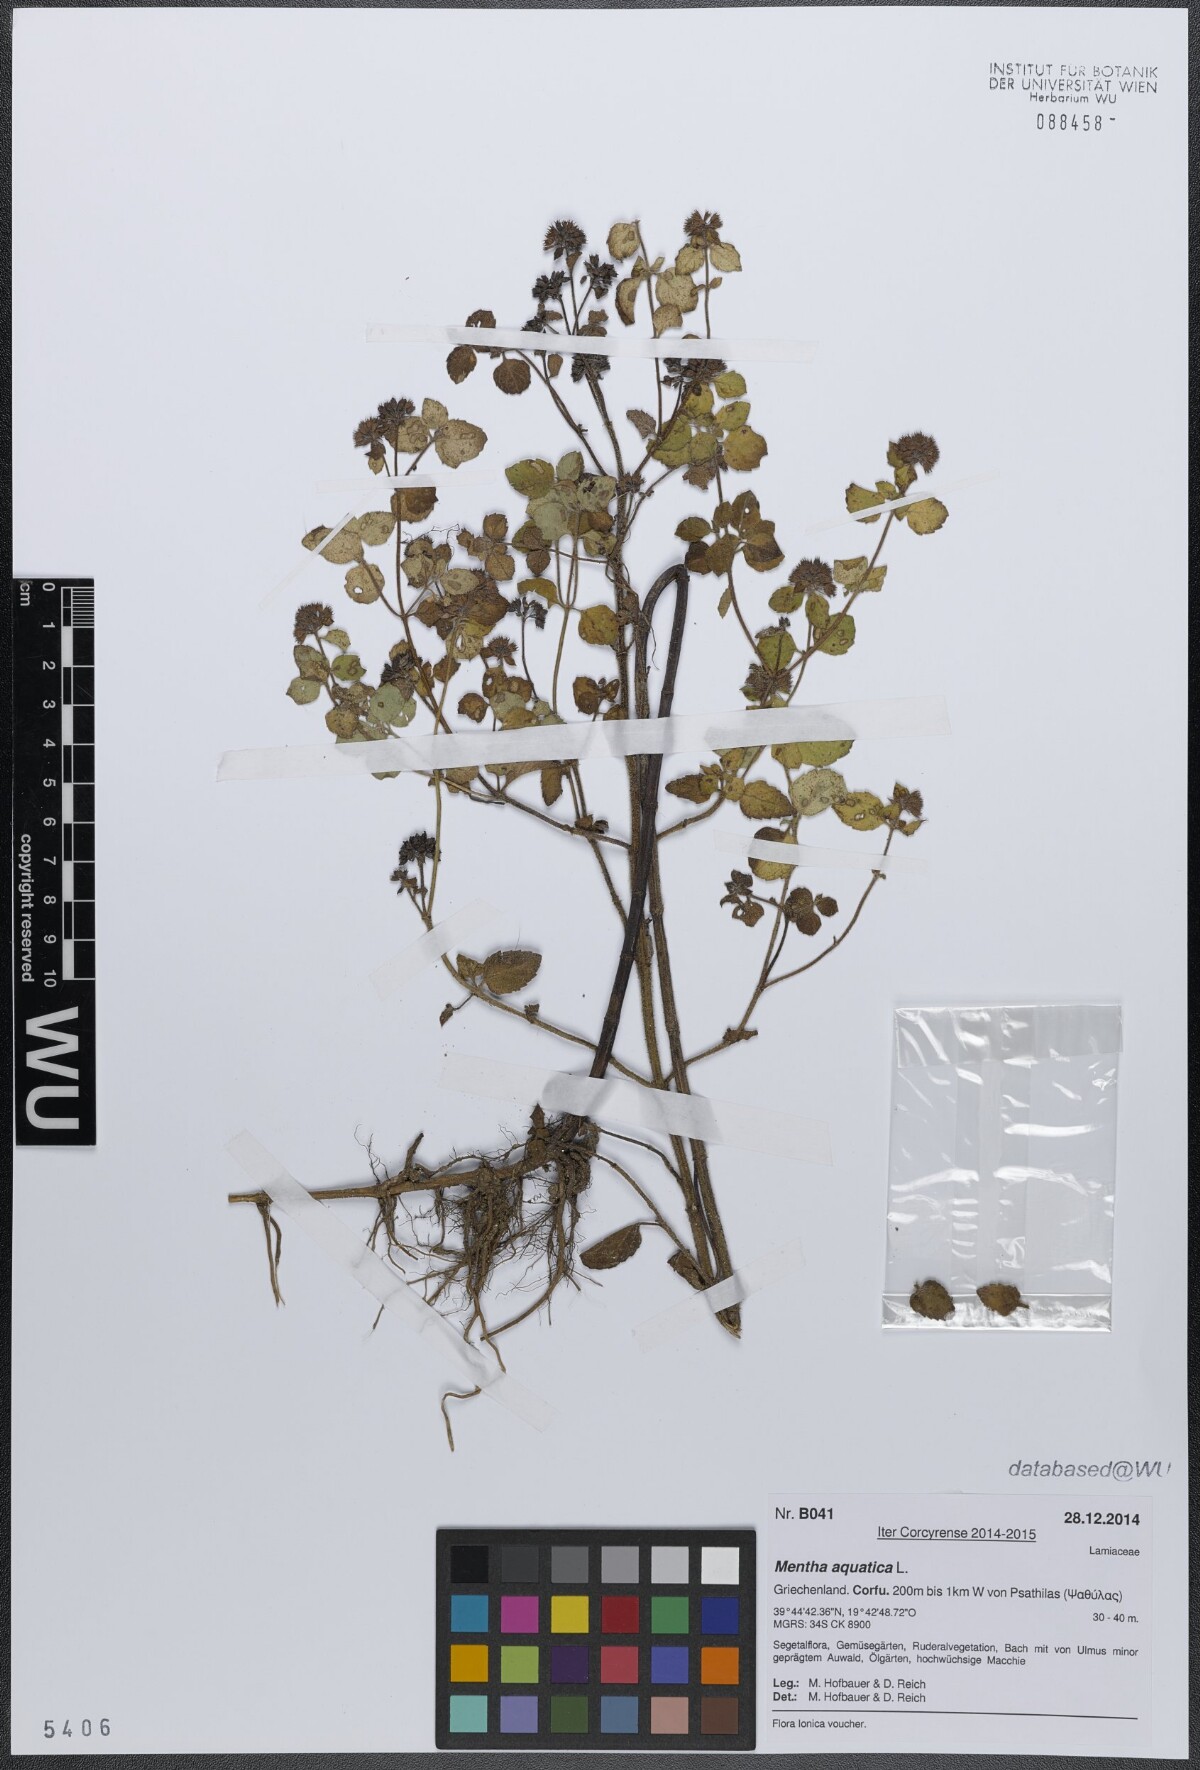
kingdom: Plantae
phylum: Tracheophyta
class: Magnoliopsida
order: Lamiales
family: Lamiaceae
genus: Mentha
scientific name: Mentha aquatica
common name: Water mint
